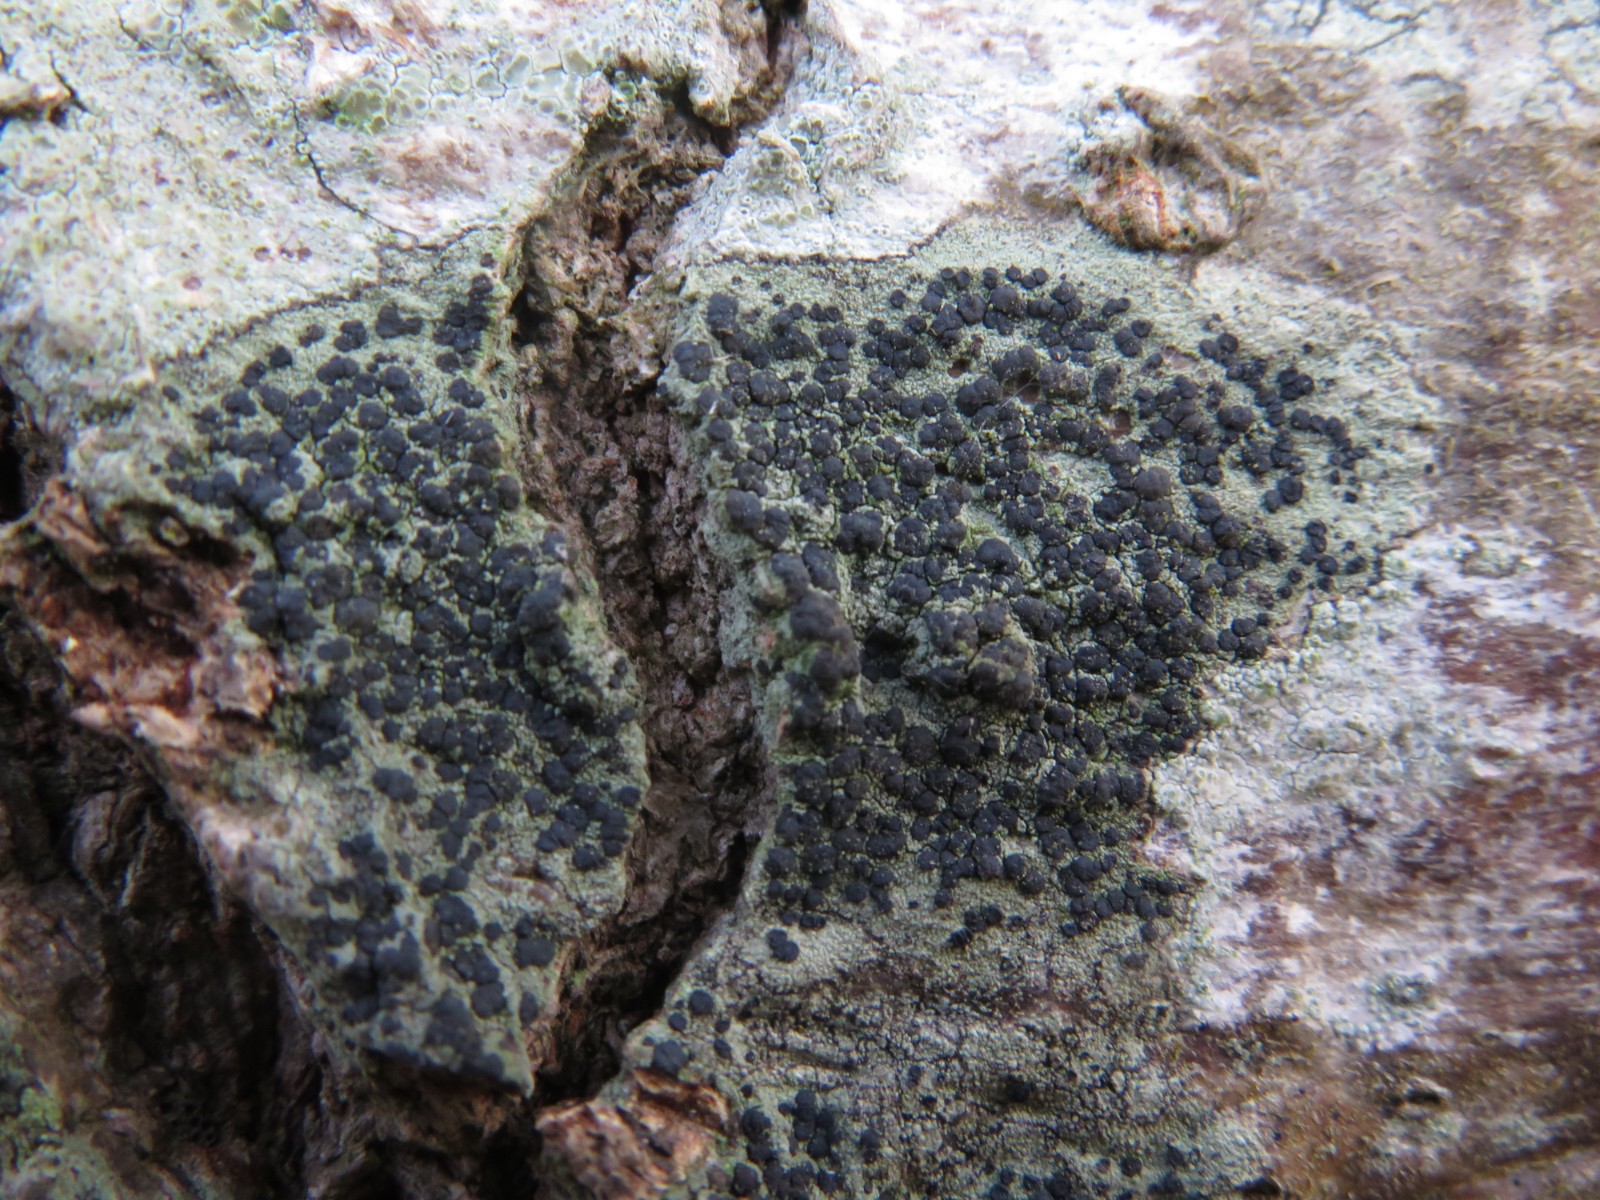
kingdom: Fungi
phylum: Ascomycota
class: Lecanoromycetes
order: Lecanorales
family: Lecanoraceae
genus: Lecidella
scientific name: Lecidella elaeochroma
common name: grågrøn skivelav
